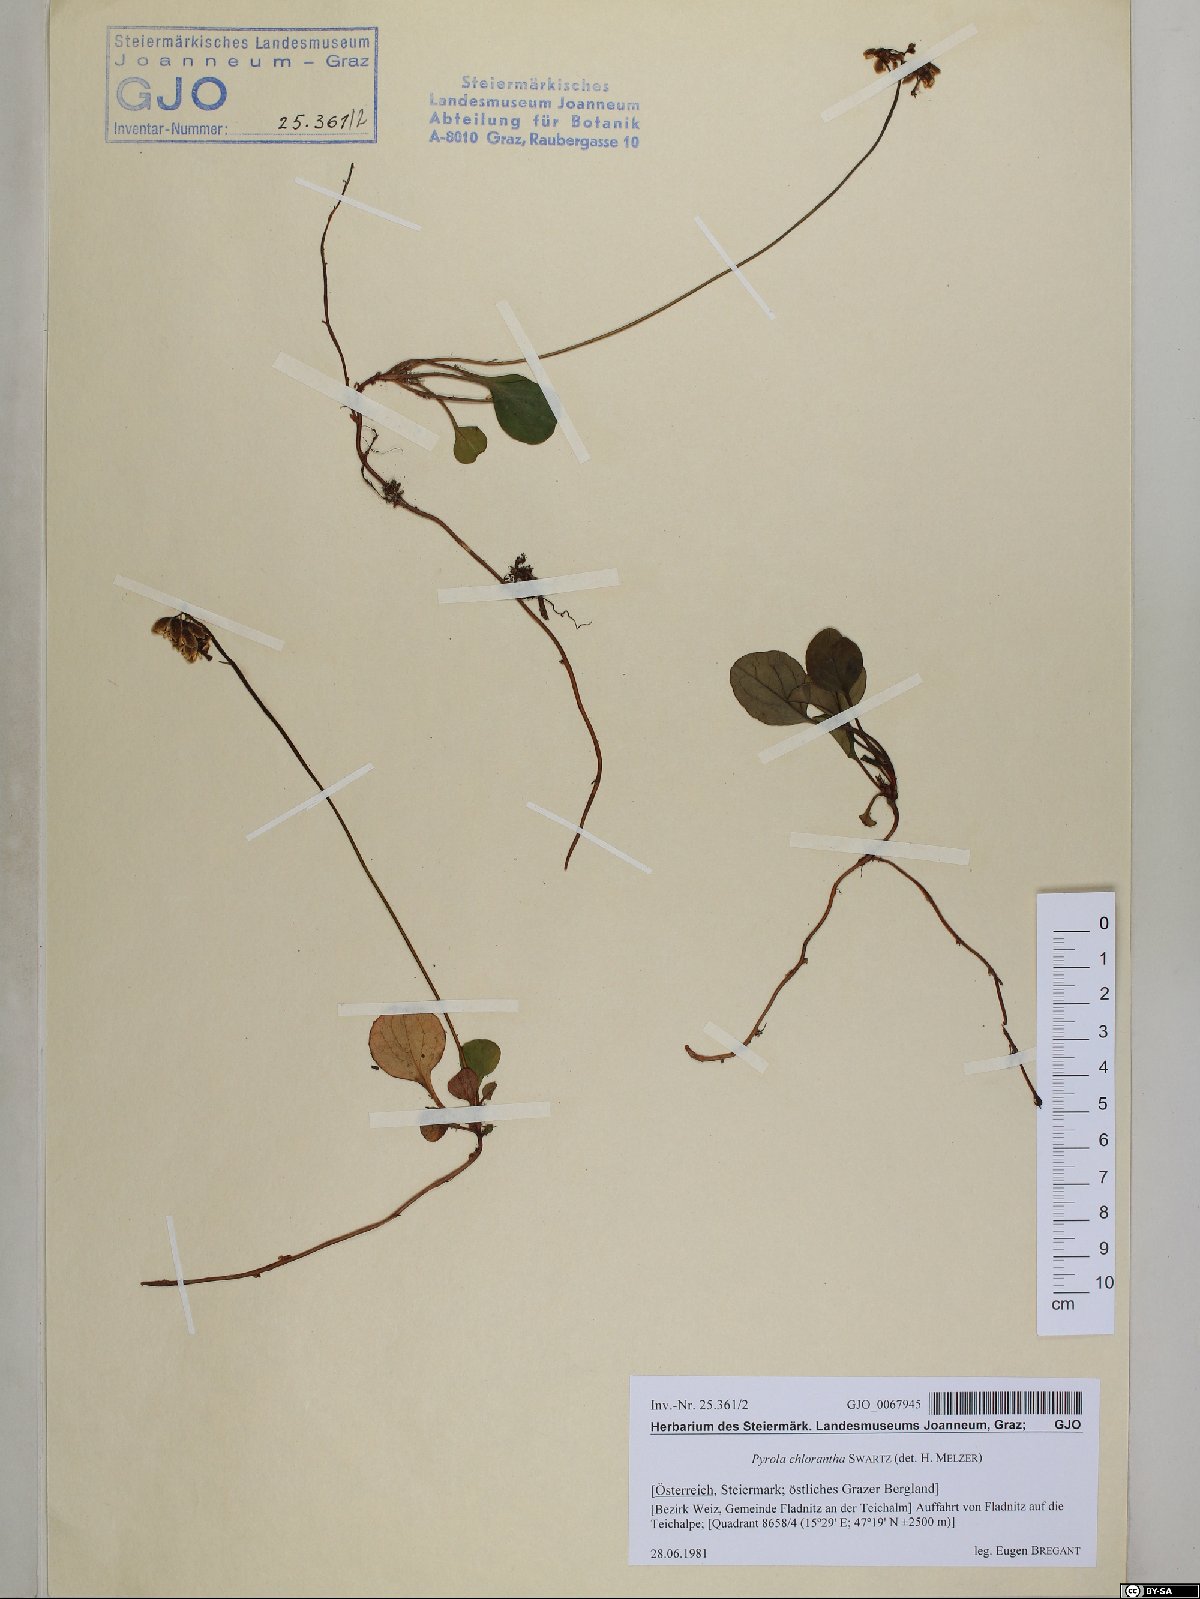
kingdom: Plantae
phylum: Tracheophyta
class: Magnoliopsida
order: Ericales
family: Ericaceae
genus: Pyrola
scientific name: Pyrola chlorantha
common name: Green wintergreen
